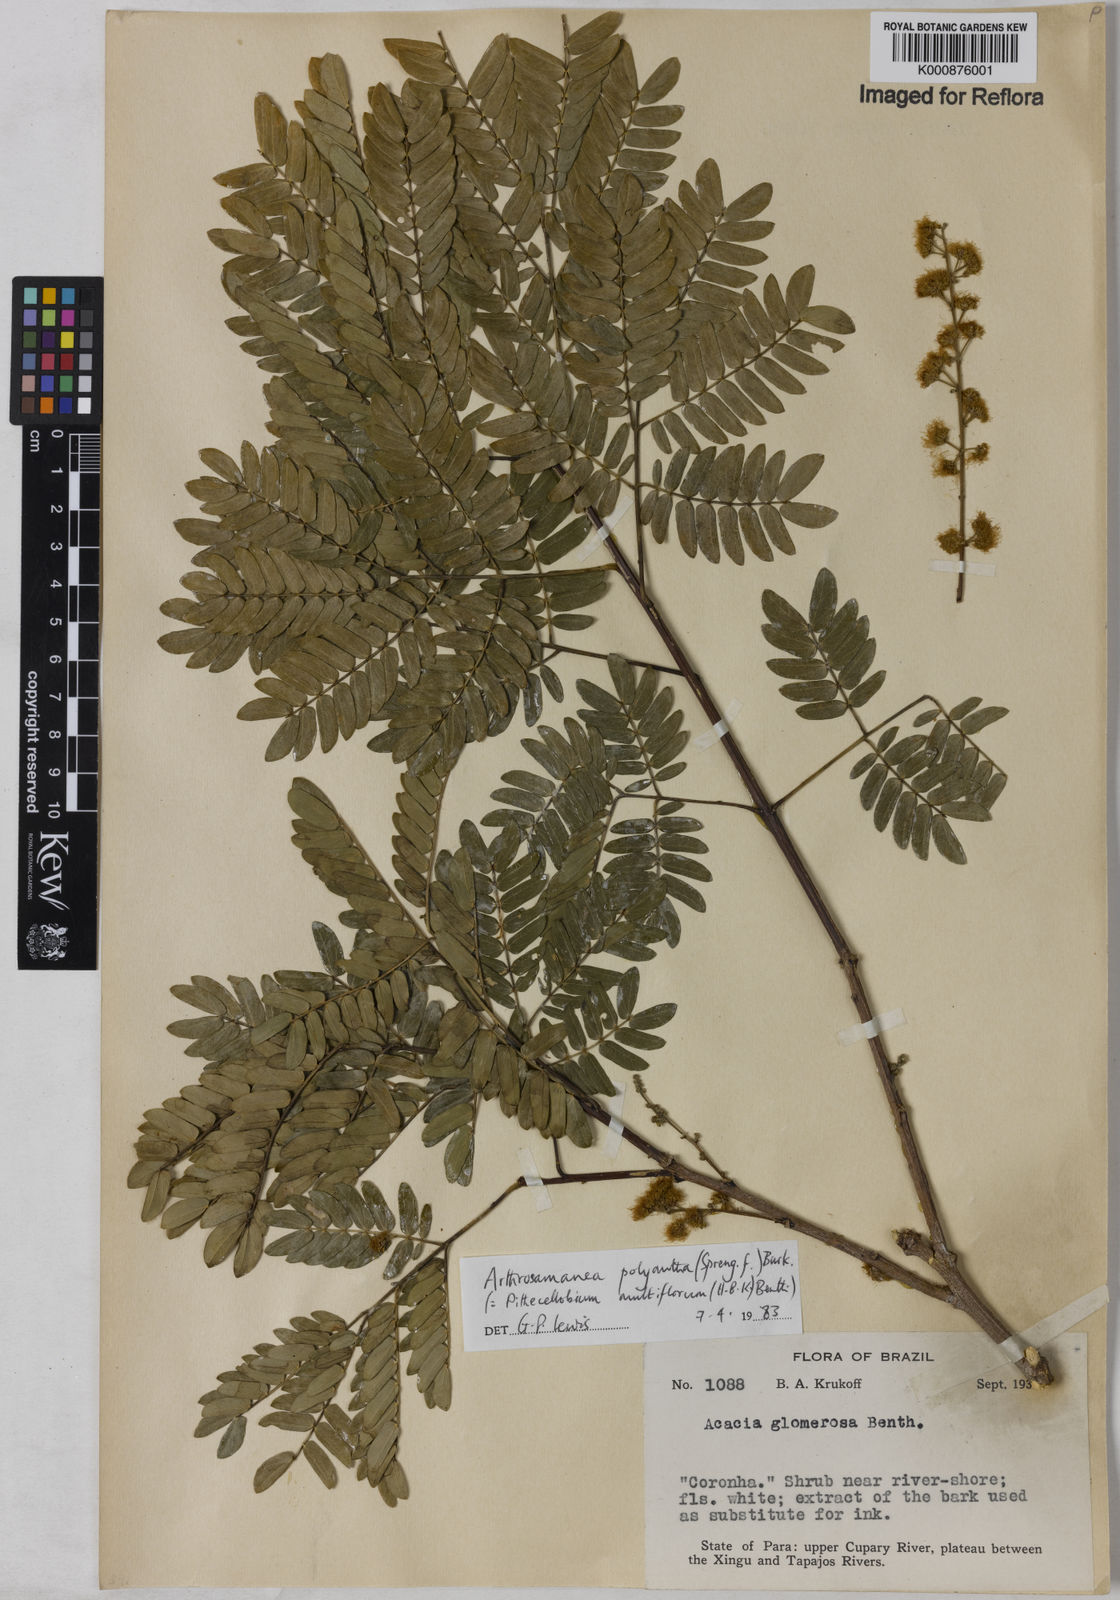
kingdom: Plantae
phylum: Tracheophyta
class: Magnoliopsida
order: Fabales
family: Fabaceae
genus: Albizia
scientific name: Albizia multiflora
